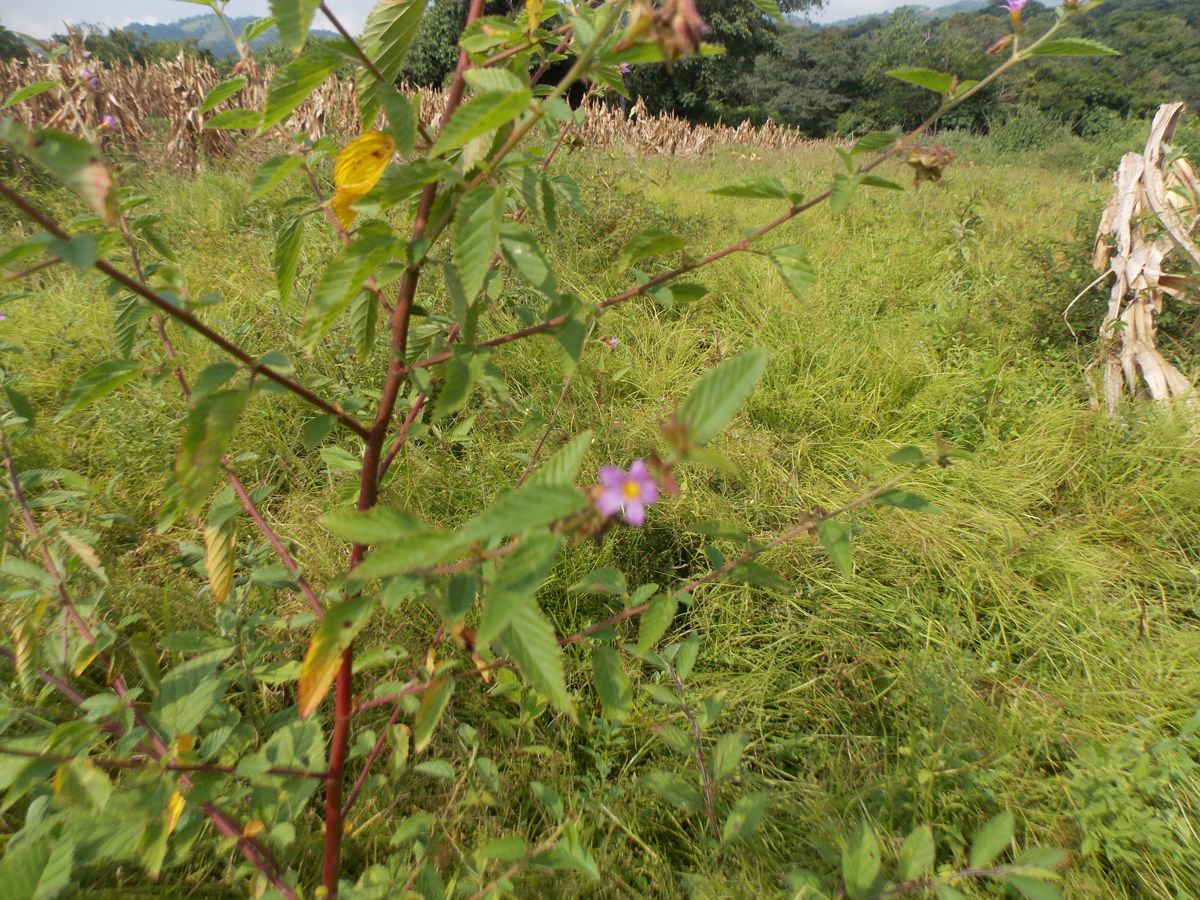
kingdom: Plantae
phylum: Tracheophyta
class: Magnoliopsida
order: Myrtales
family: Onagraceae
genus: Ludwigia
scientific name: Ludwigia hyssopifolia
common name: Linear leaf water primrose
